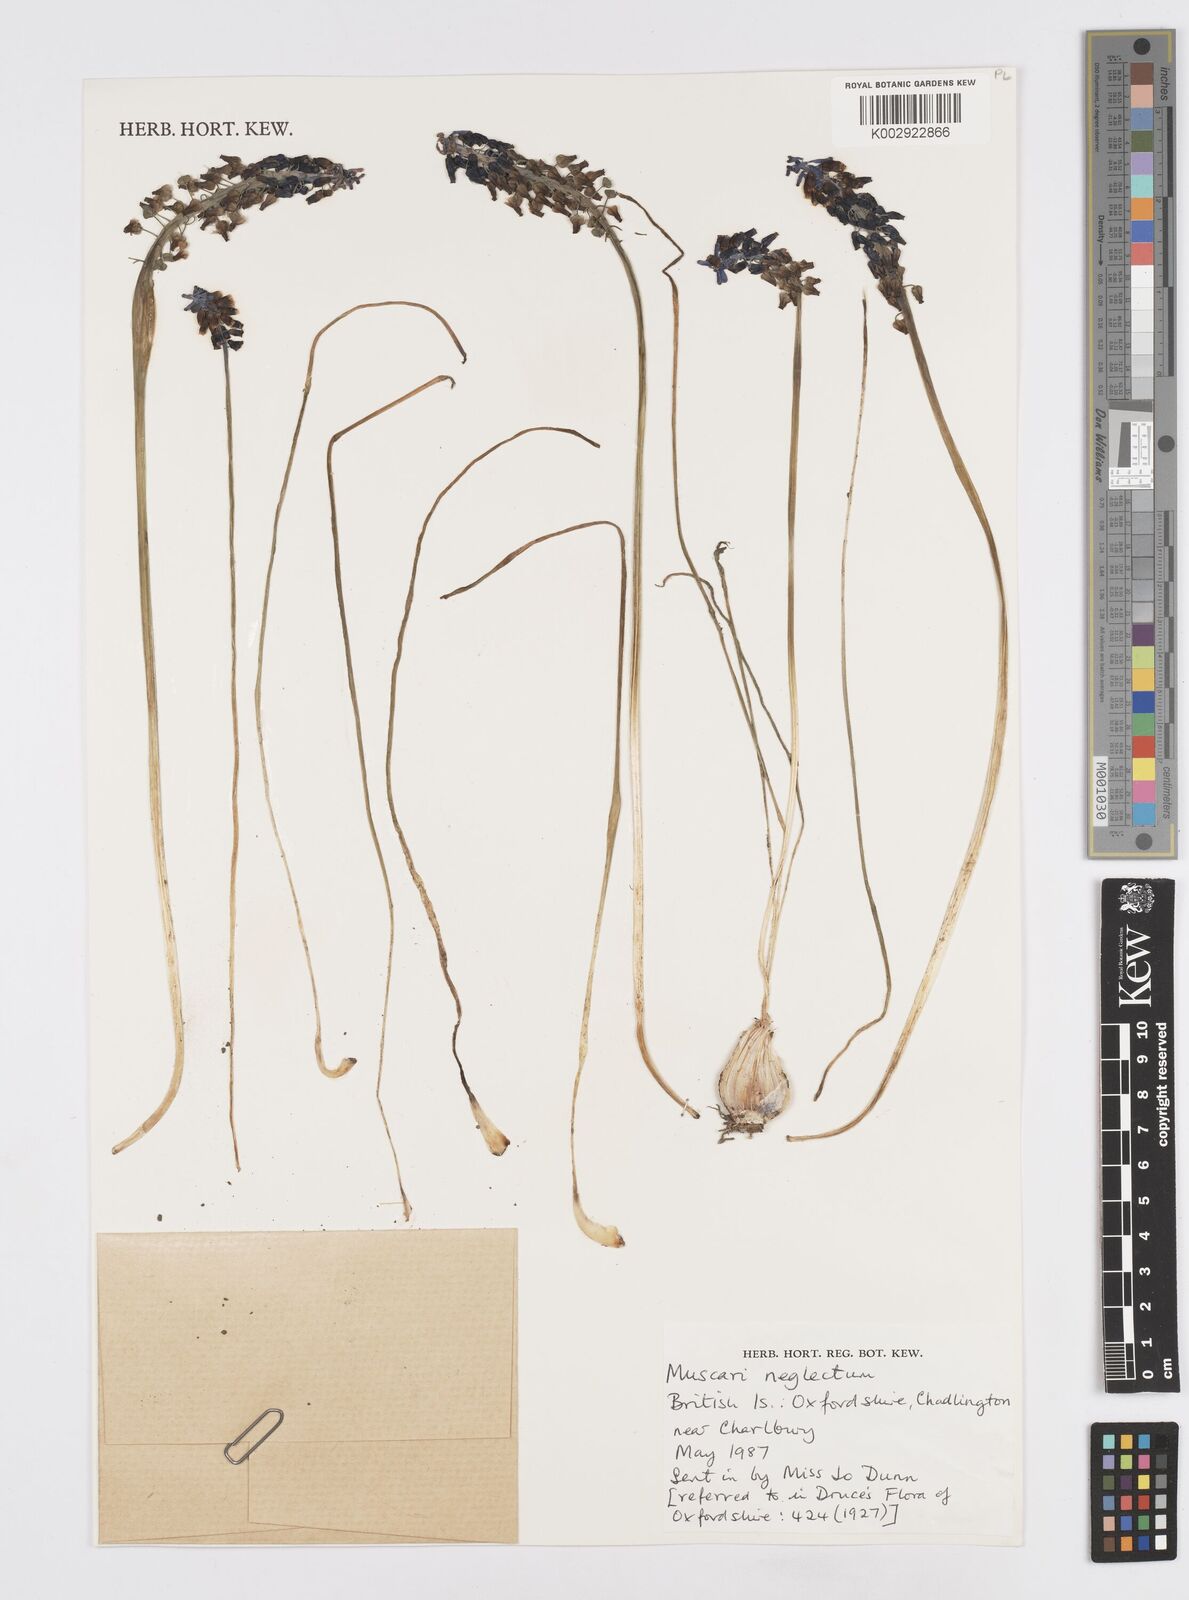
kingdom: Plantae
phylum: Tracheophyta
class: Liliopsida
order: Asparagales
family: Asparagaceae
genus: Muscari
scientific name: Muscari neglectum
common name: Grape-hyacinth
